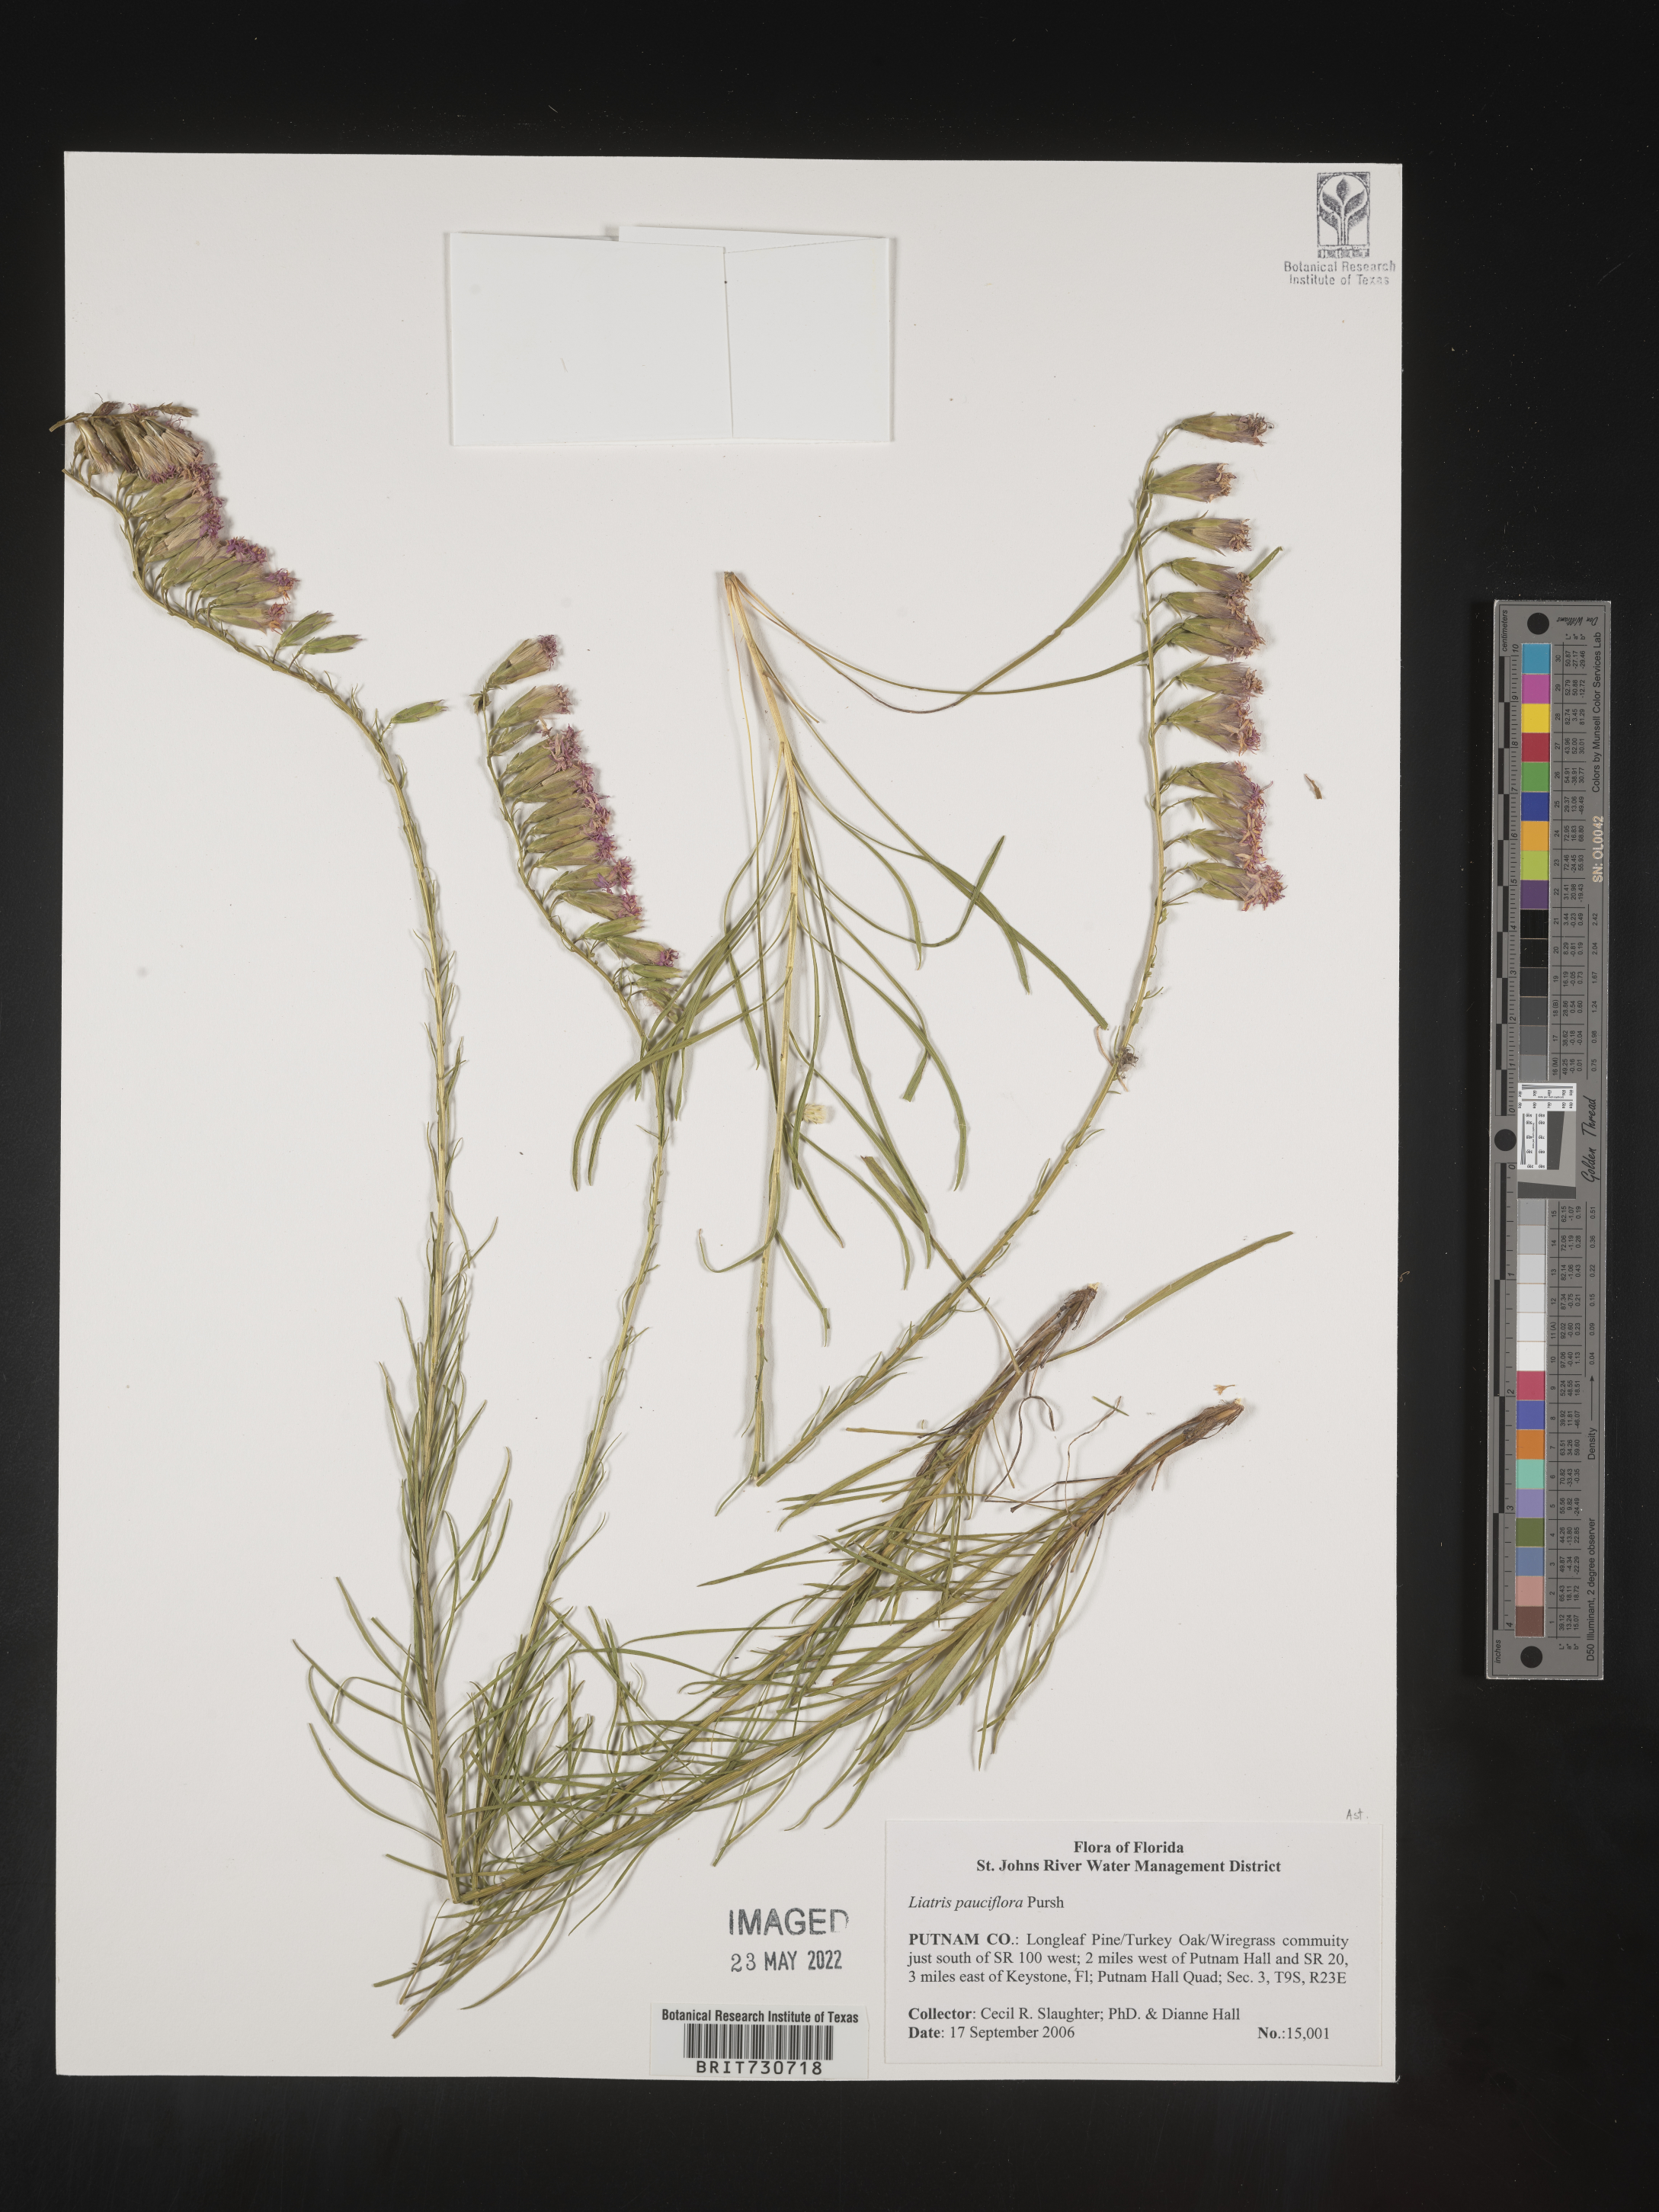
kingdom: Plantae
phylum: Tracheophyta
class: Magnoliopsida
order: Asterales
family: Asteraceae
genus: Liatris
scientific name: Liatris pauciflora
